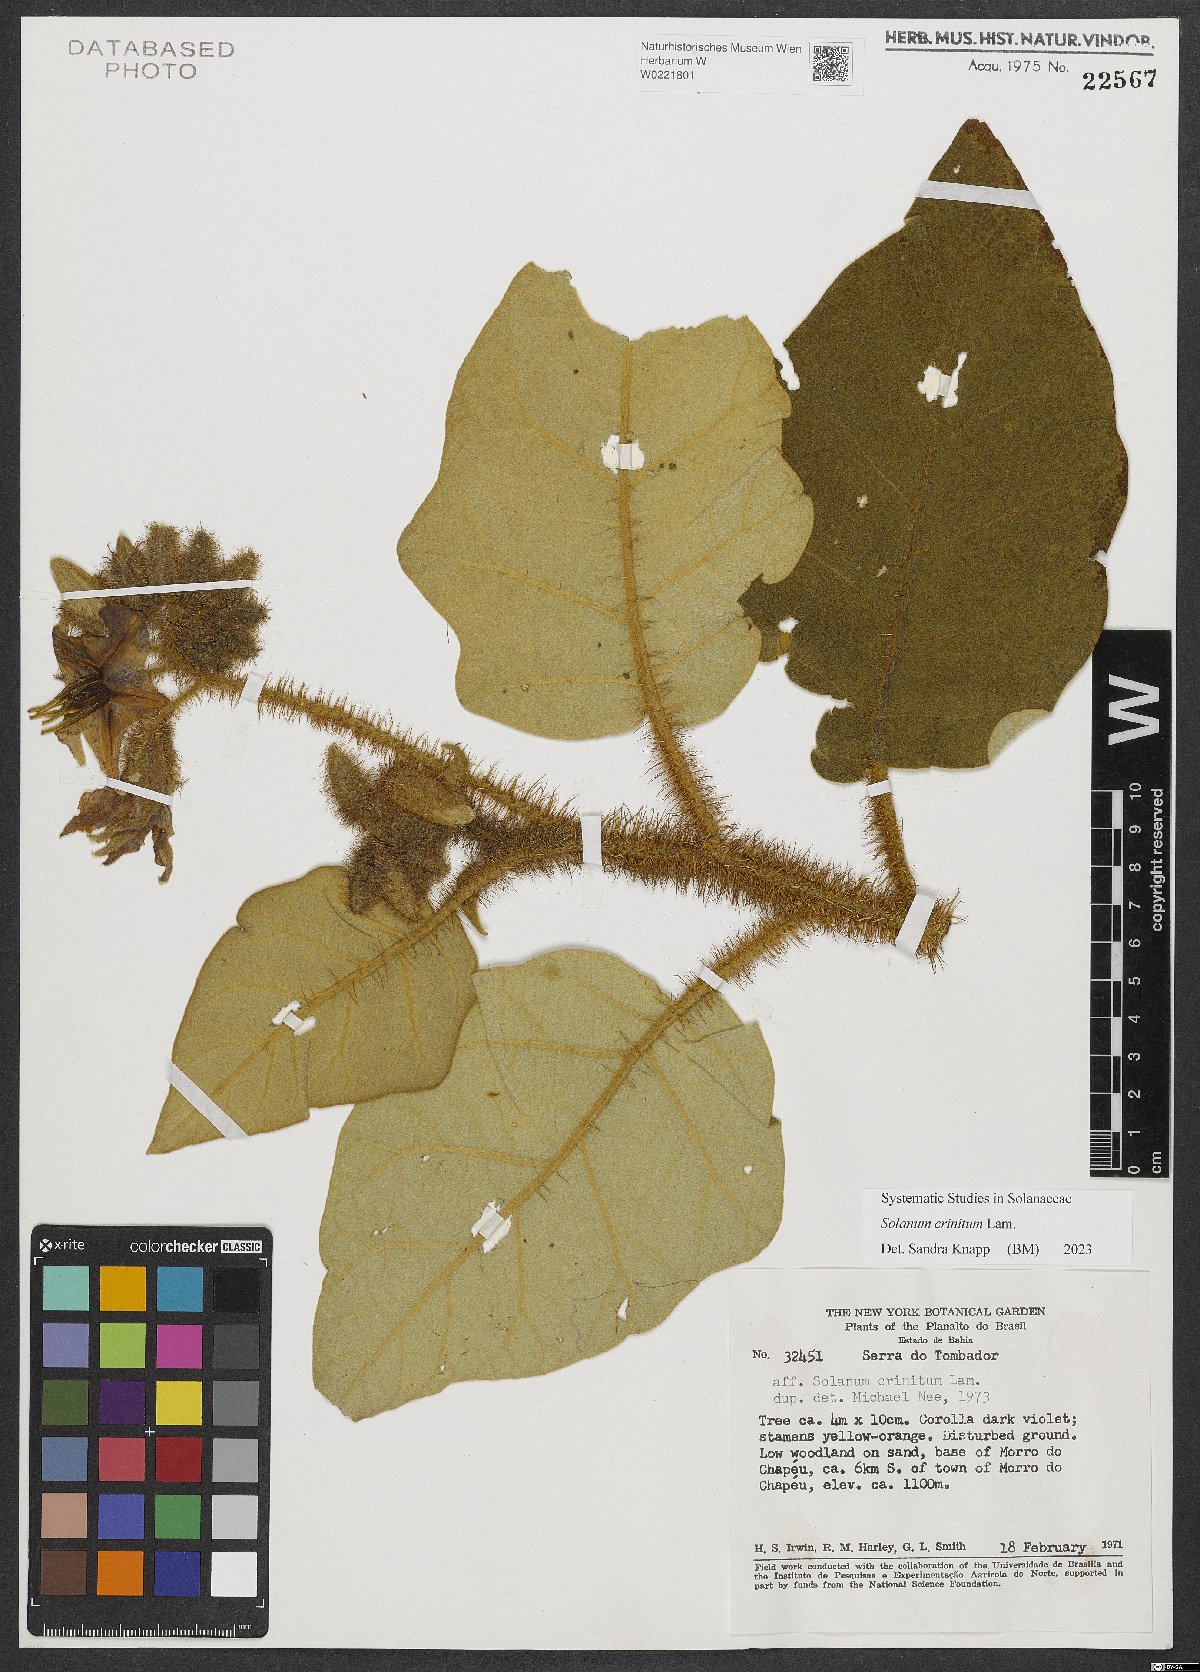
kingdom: Plantae
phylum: Tracheophyta
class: Magnoliopsida
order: Solanales
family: Solanaceae
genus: Solanum
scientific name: Solanum crinitum
